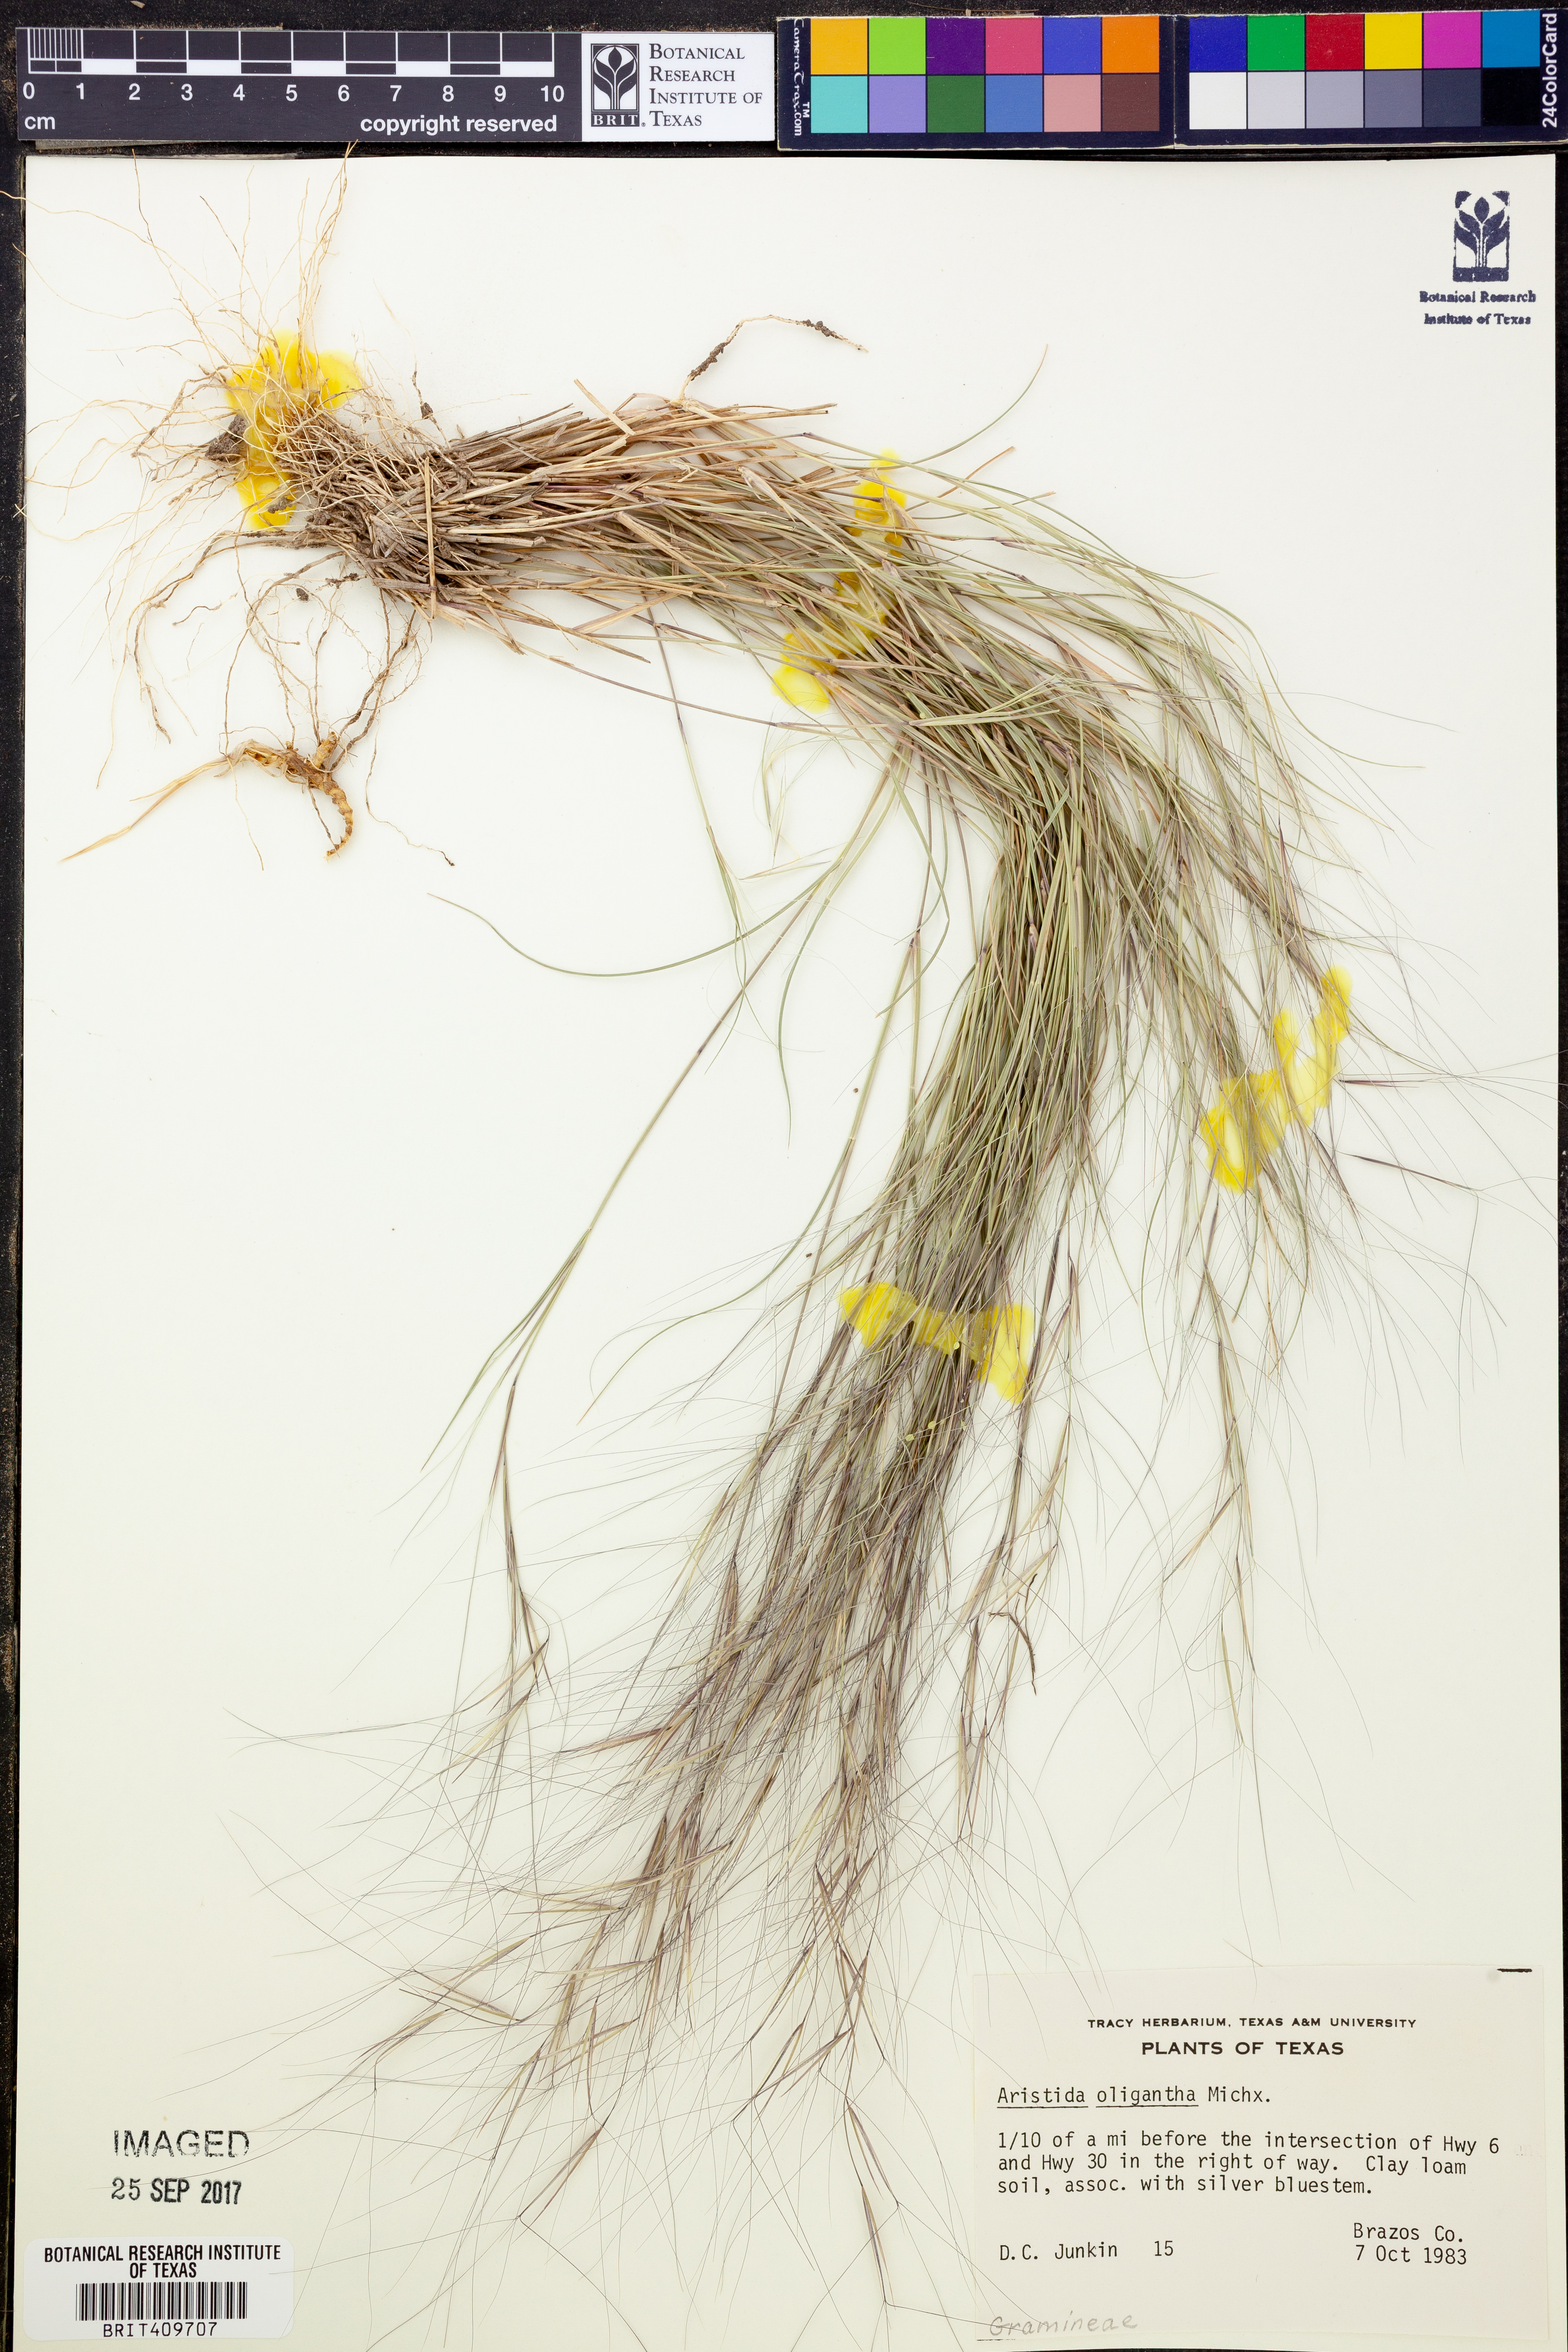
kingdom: Plantae
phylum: Tracheophyta
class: Liliopsida
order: Poales
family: Poaceae
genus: Aristida
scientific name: Aristida oligantha
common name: Few-flowered aristida
